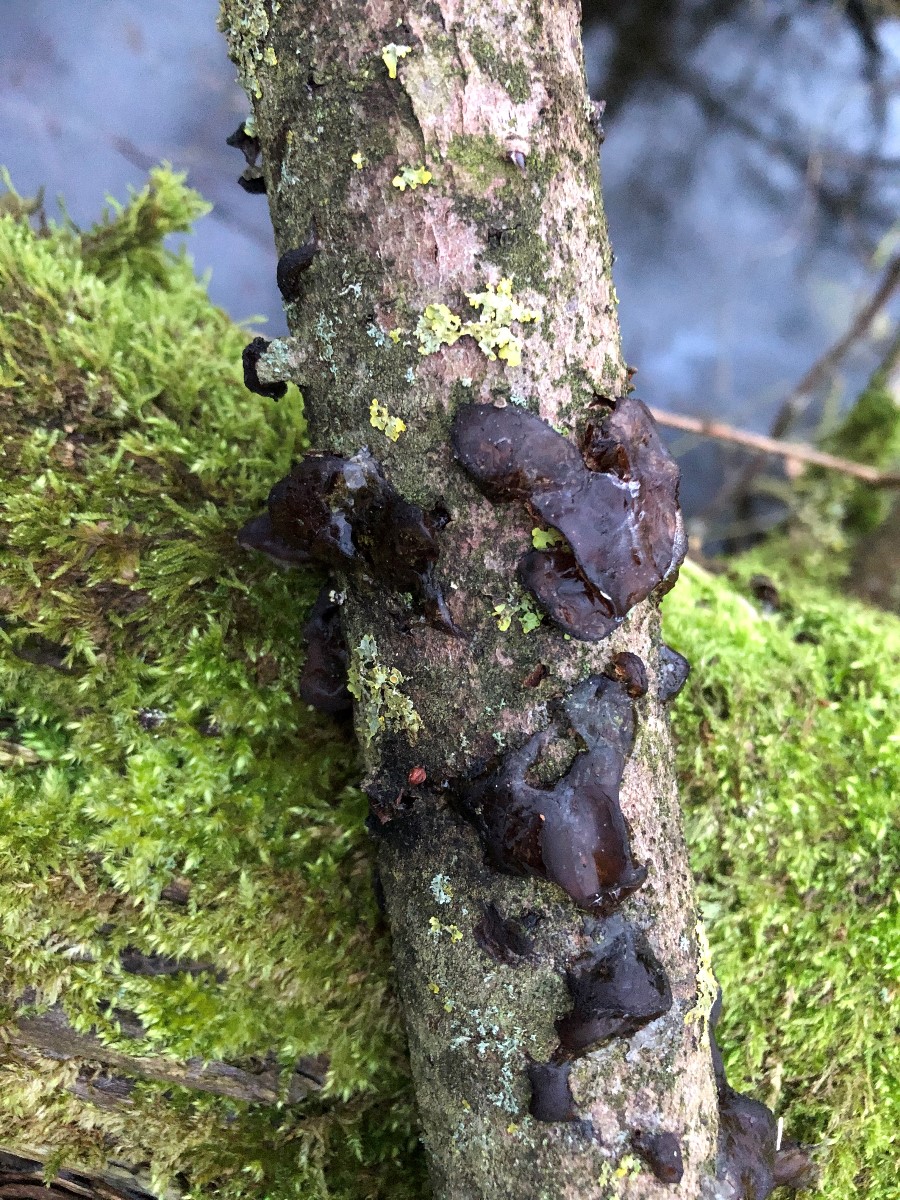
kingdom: Fungi
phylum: Basidiomycota
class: Tremellomycetes
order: Tremellales
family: Exidiaceae
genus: Exidia
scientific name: Exidia
